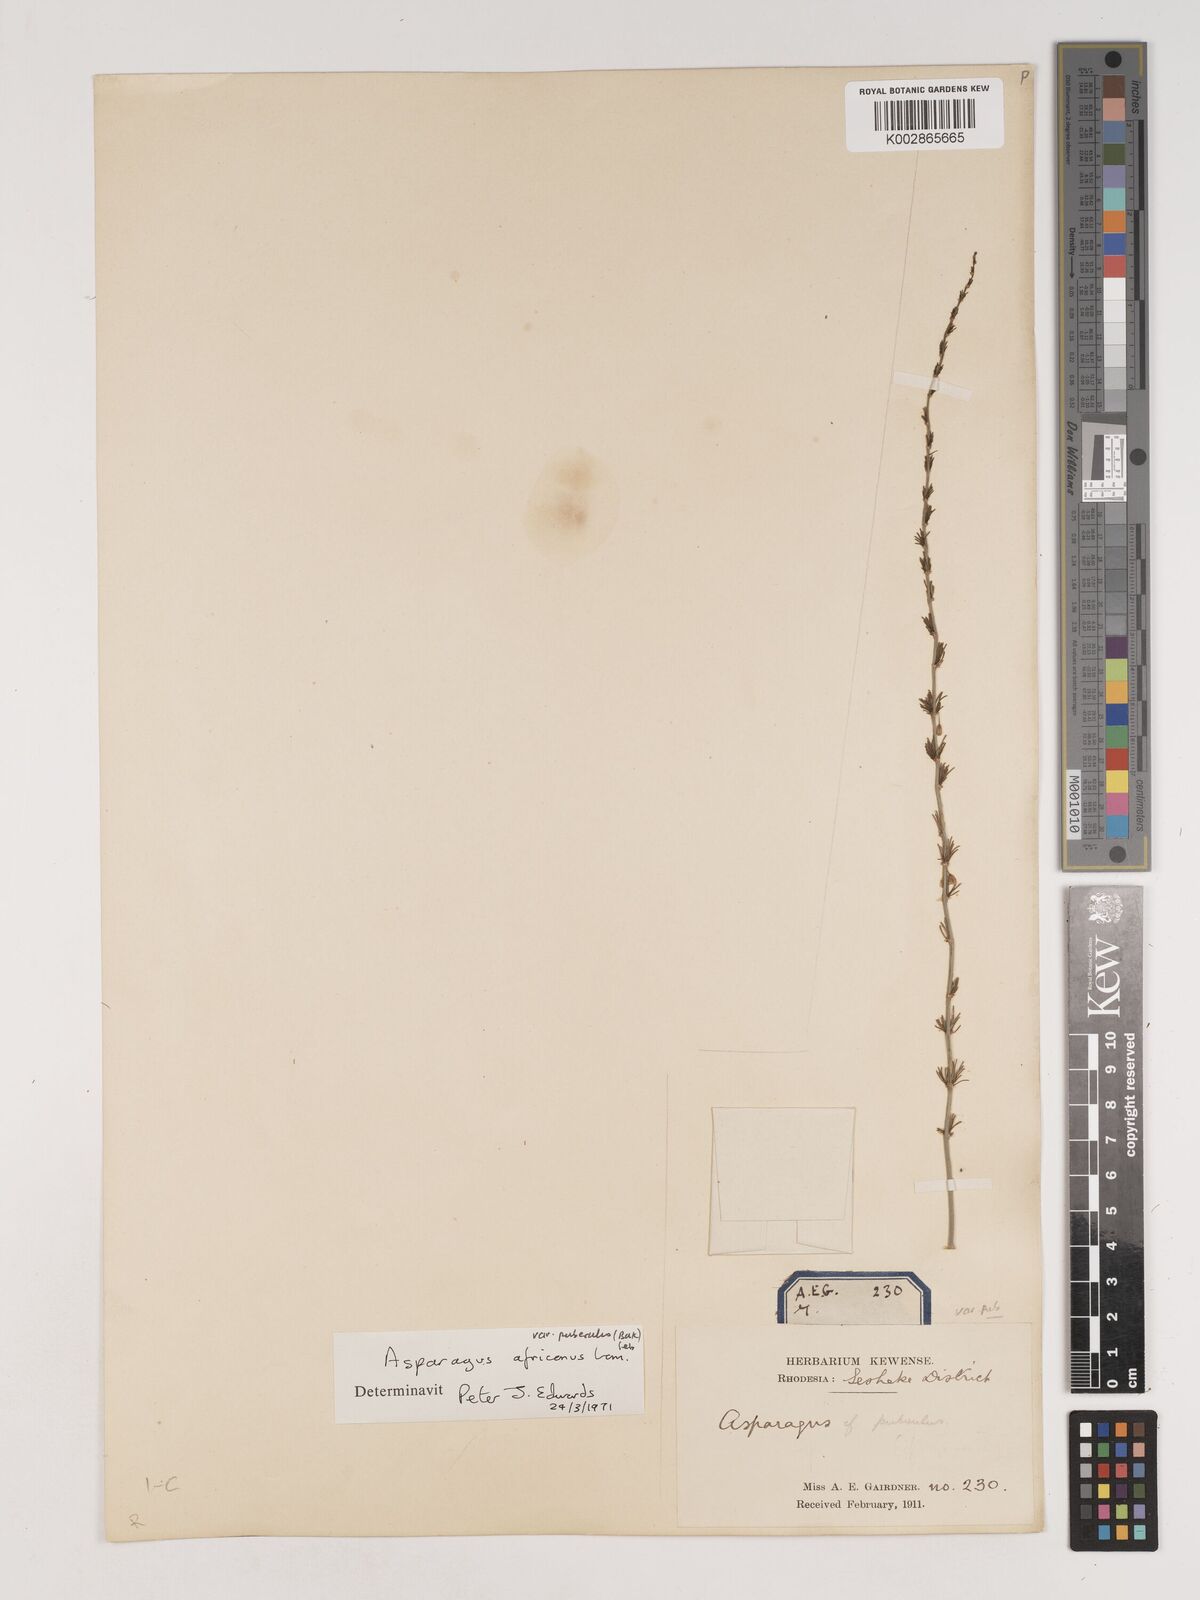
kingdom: Plantae
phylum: Tracheophyta
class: Liliopsida
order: Asparagales
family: Asparagaceae
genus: Asparagus
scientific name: Asparagus africanus
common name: Asparagus-fern
